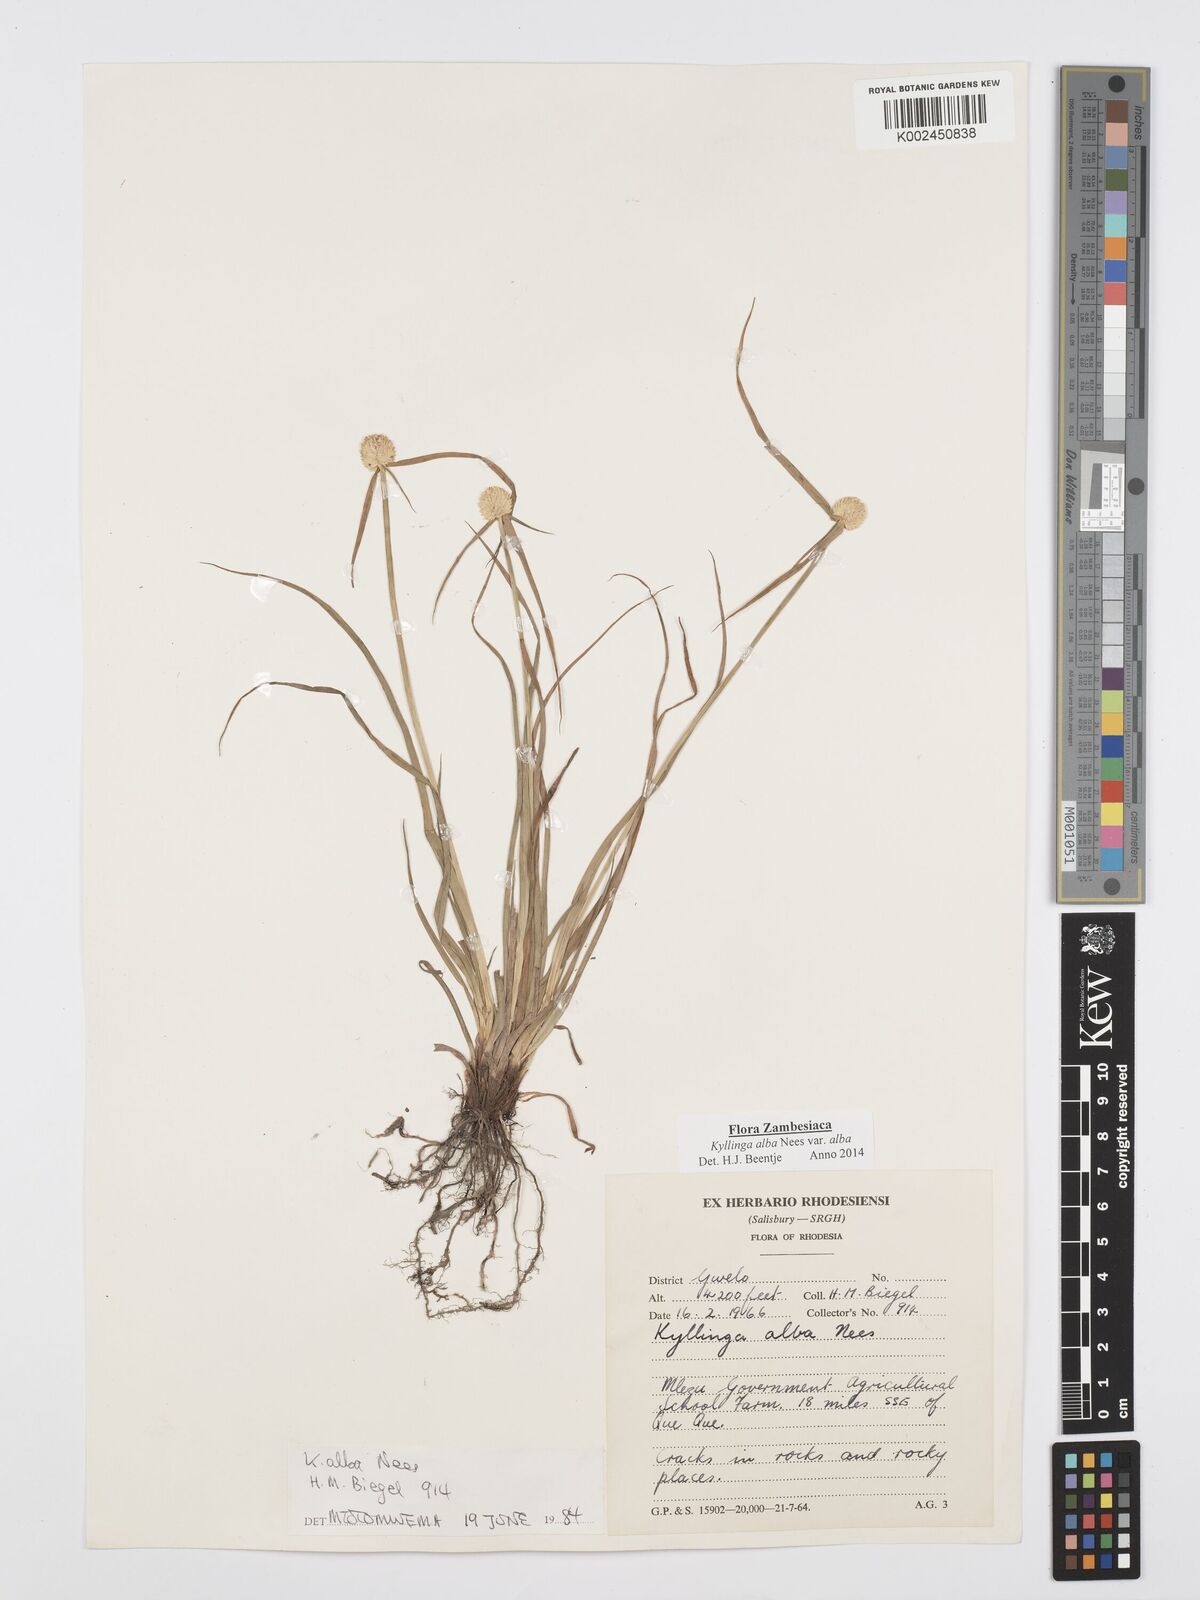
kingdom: Plantae
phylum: Tracheophyta
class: Liliopsida
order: Poales
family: Cyperaceae
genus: Cyperus
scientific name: Cyperus
